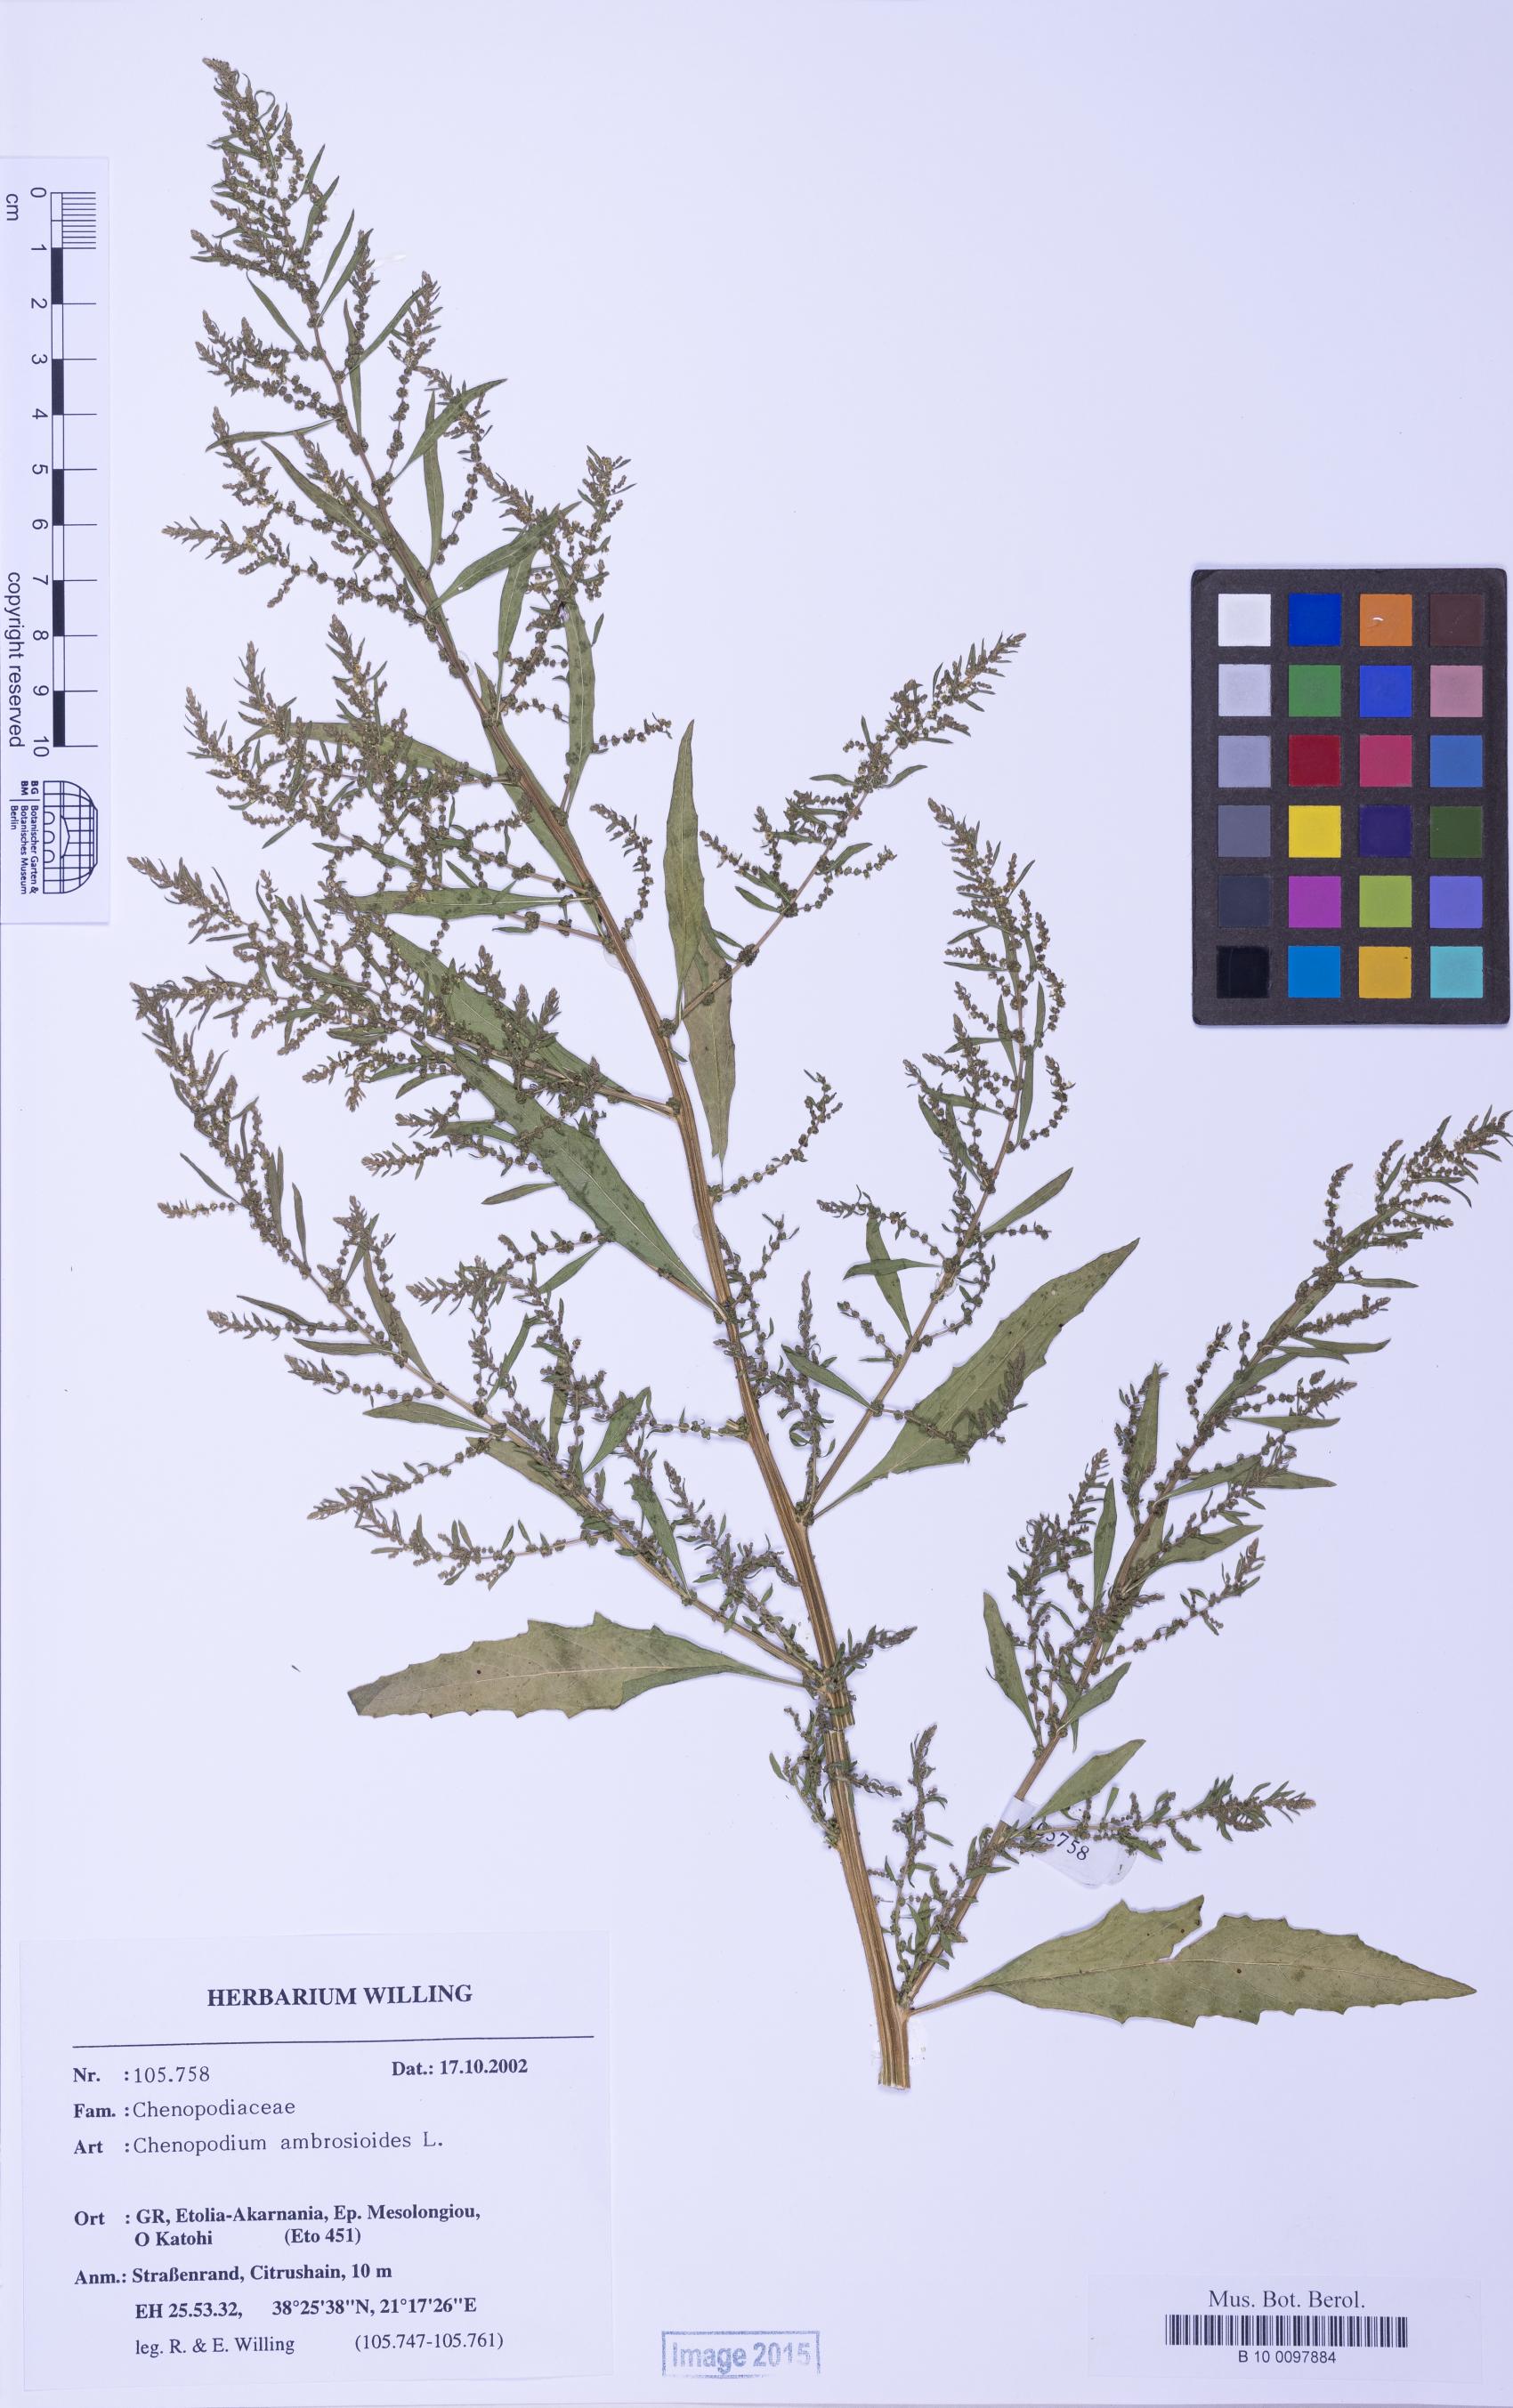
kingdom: Plantae
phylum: Tracheophyta
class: Magnoliopsida
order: Caryophyllales
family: Amaranthaceae
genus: Dysphania
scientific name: Dysphania ambrosioides
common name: Wormseed
